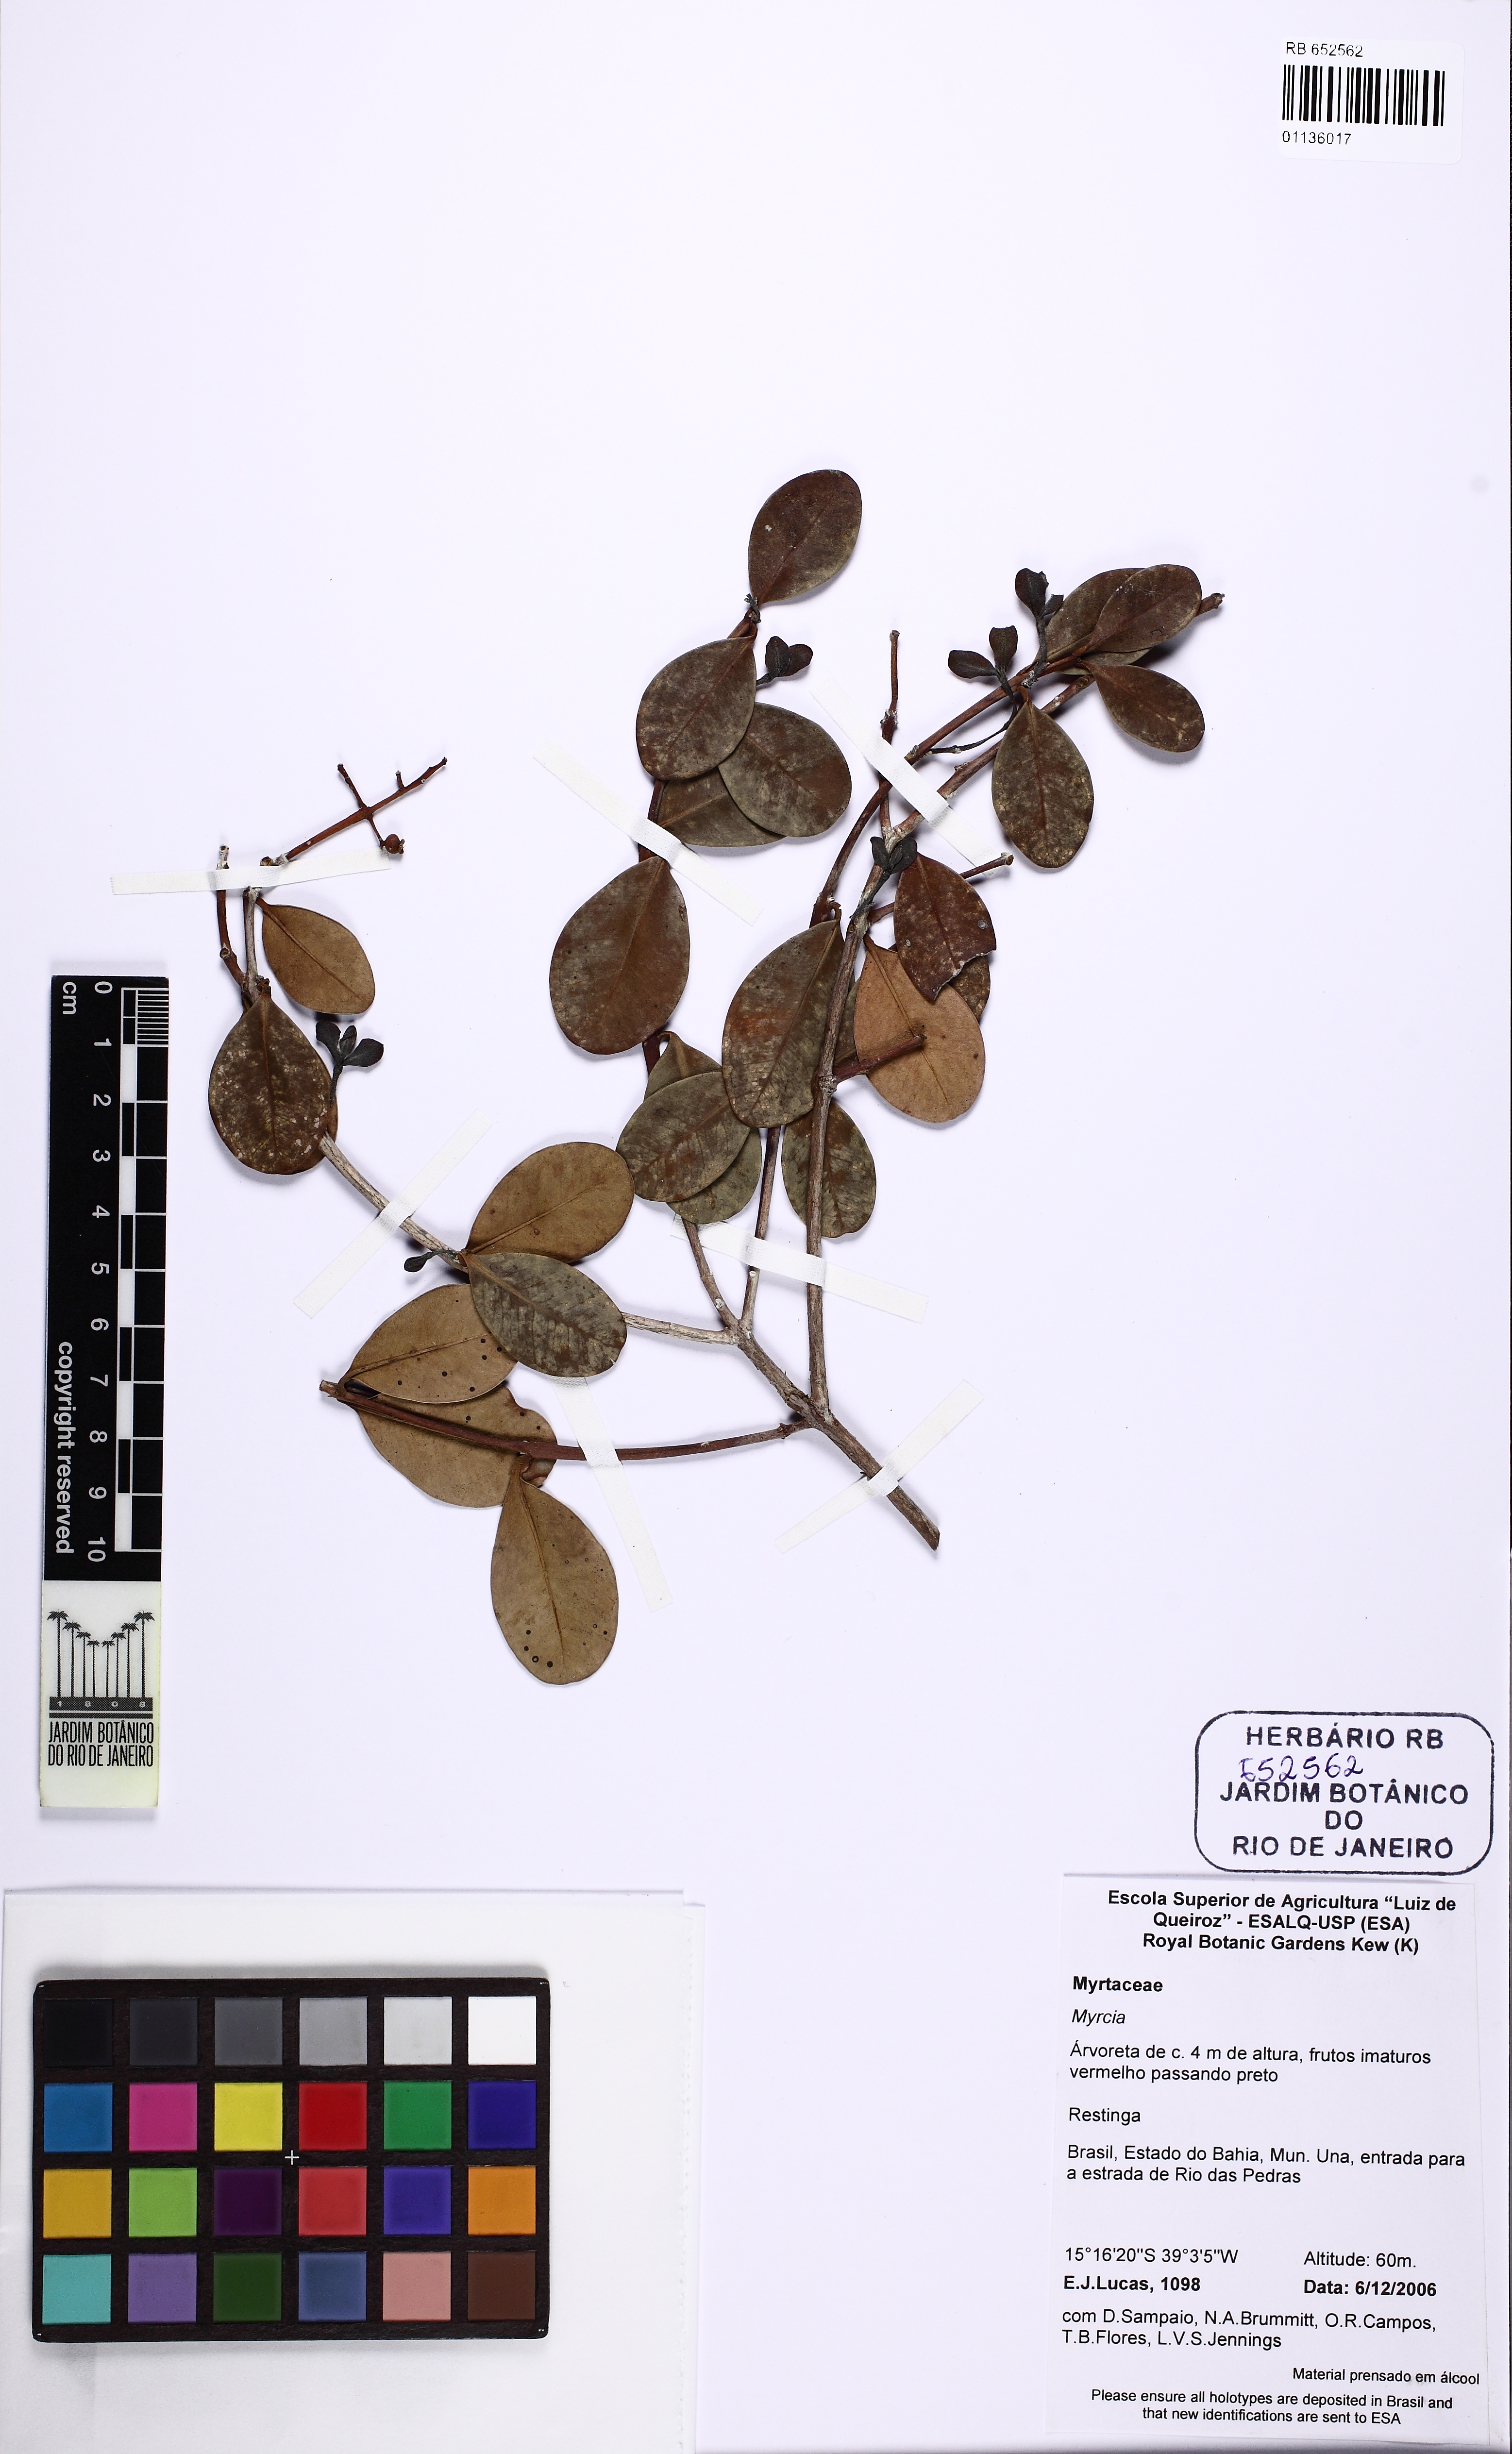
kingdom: Plantae
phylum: Tracheophyta
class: Magnoliopsida
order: Myrtales
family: Myrtaceae
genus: Myrcia
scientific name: Myrcia littoralis
